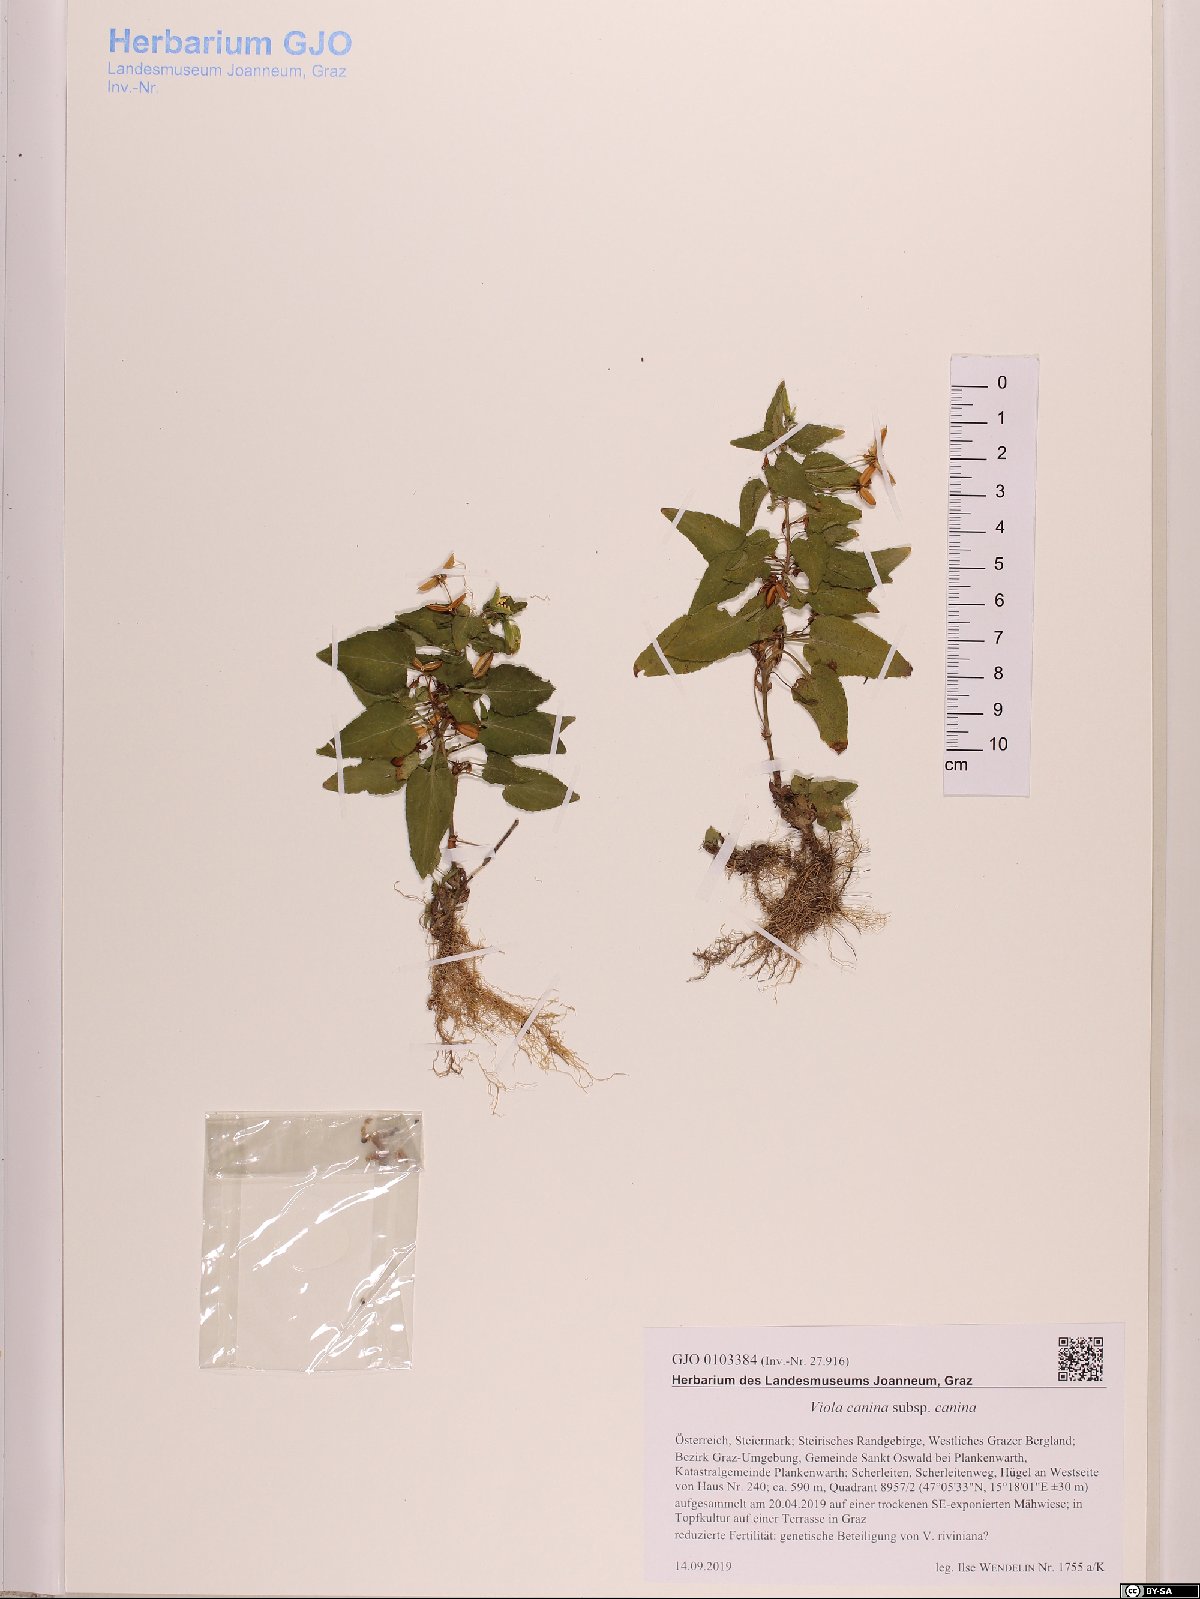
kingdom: Plantae
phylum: Tracheophyta
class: Magnoliopsida
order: Malpighiales
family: Violaceae
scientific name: Violaceae
